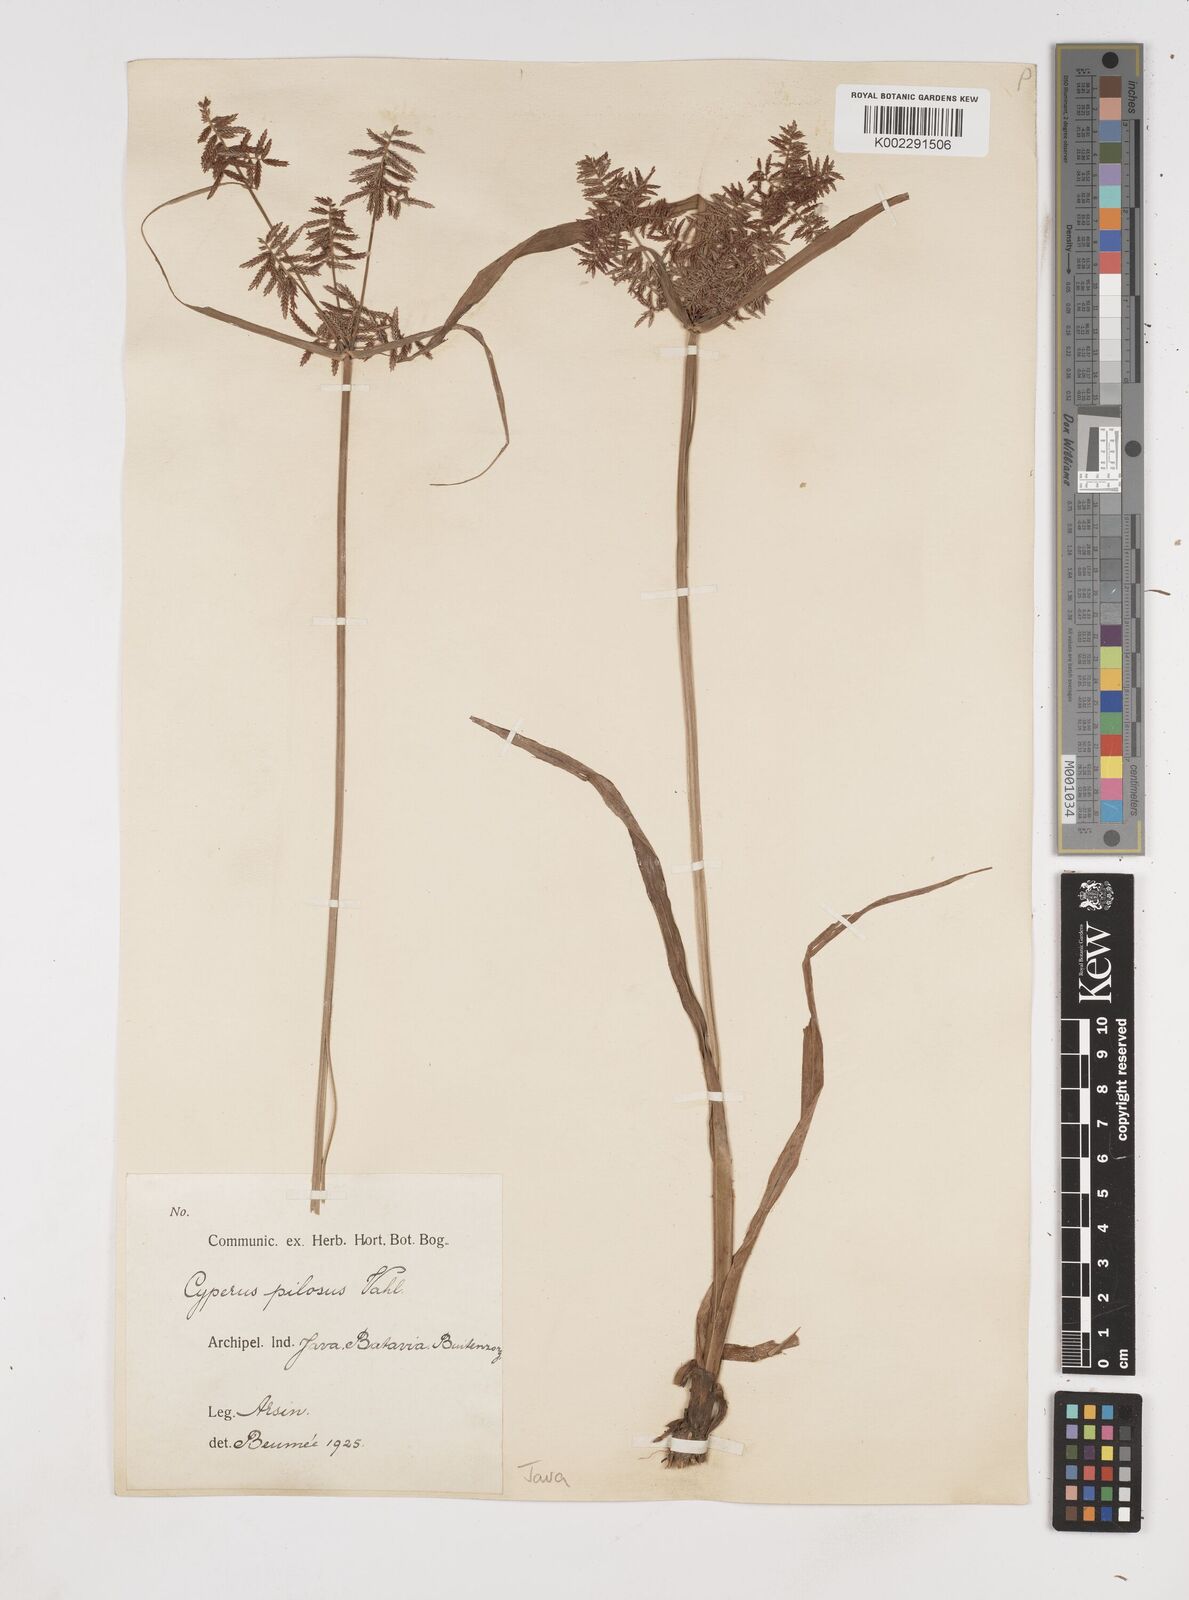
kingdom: Plantae
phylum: Tracheophyta
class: Liliopsida
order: Poales
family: Cyperaceae
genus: Cyperus
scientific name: Cyperus pilosus
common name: Fuzzy flatsedge
